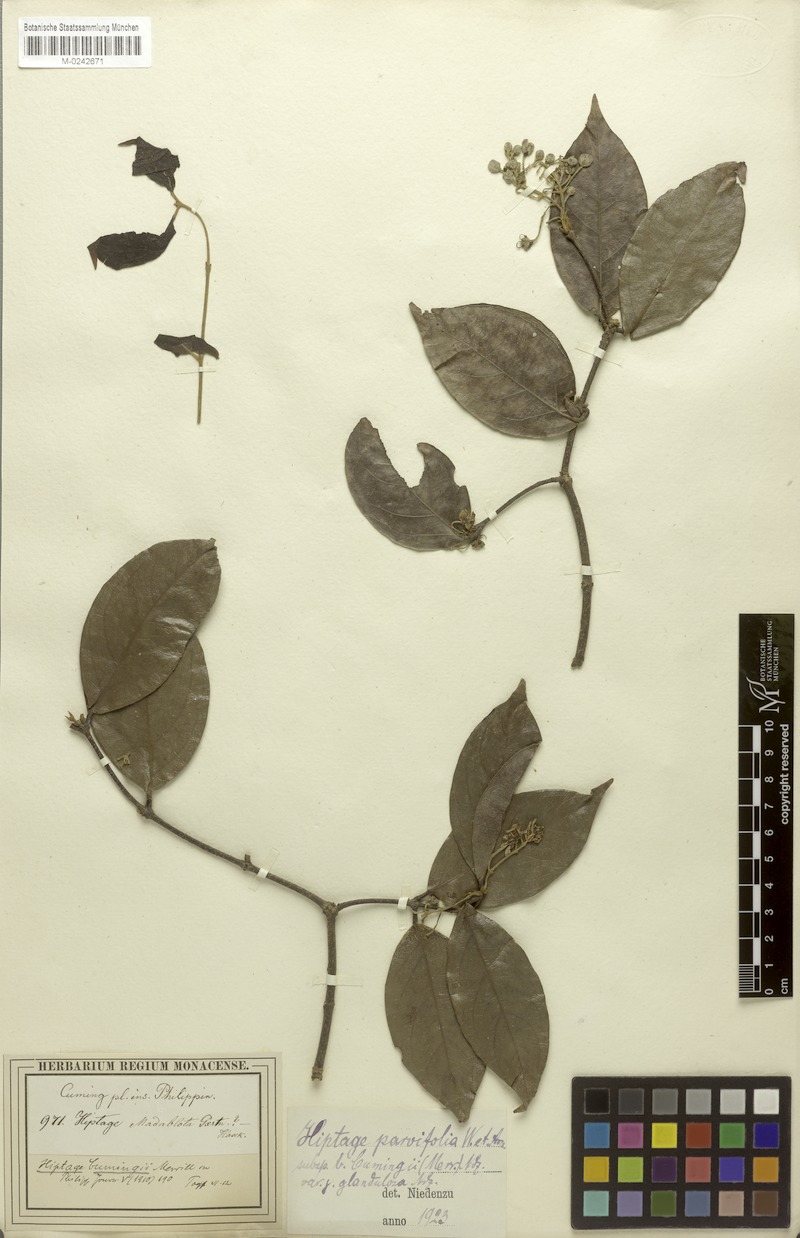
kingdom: Plantae
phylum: Tracheophyta
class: Magnoliopsida
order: Malpighiales
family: Malpighiaceae
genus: Hiptage
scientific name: Hiptage luzonica
